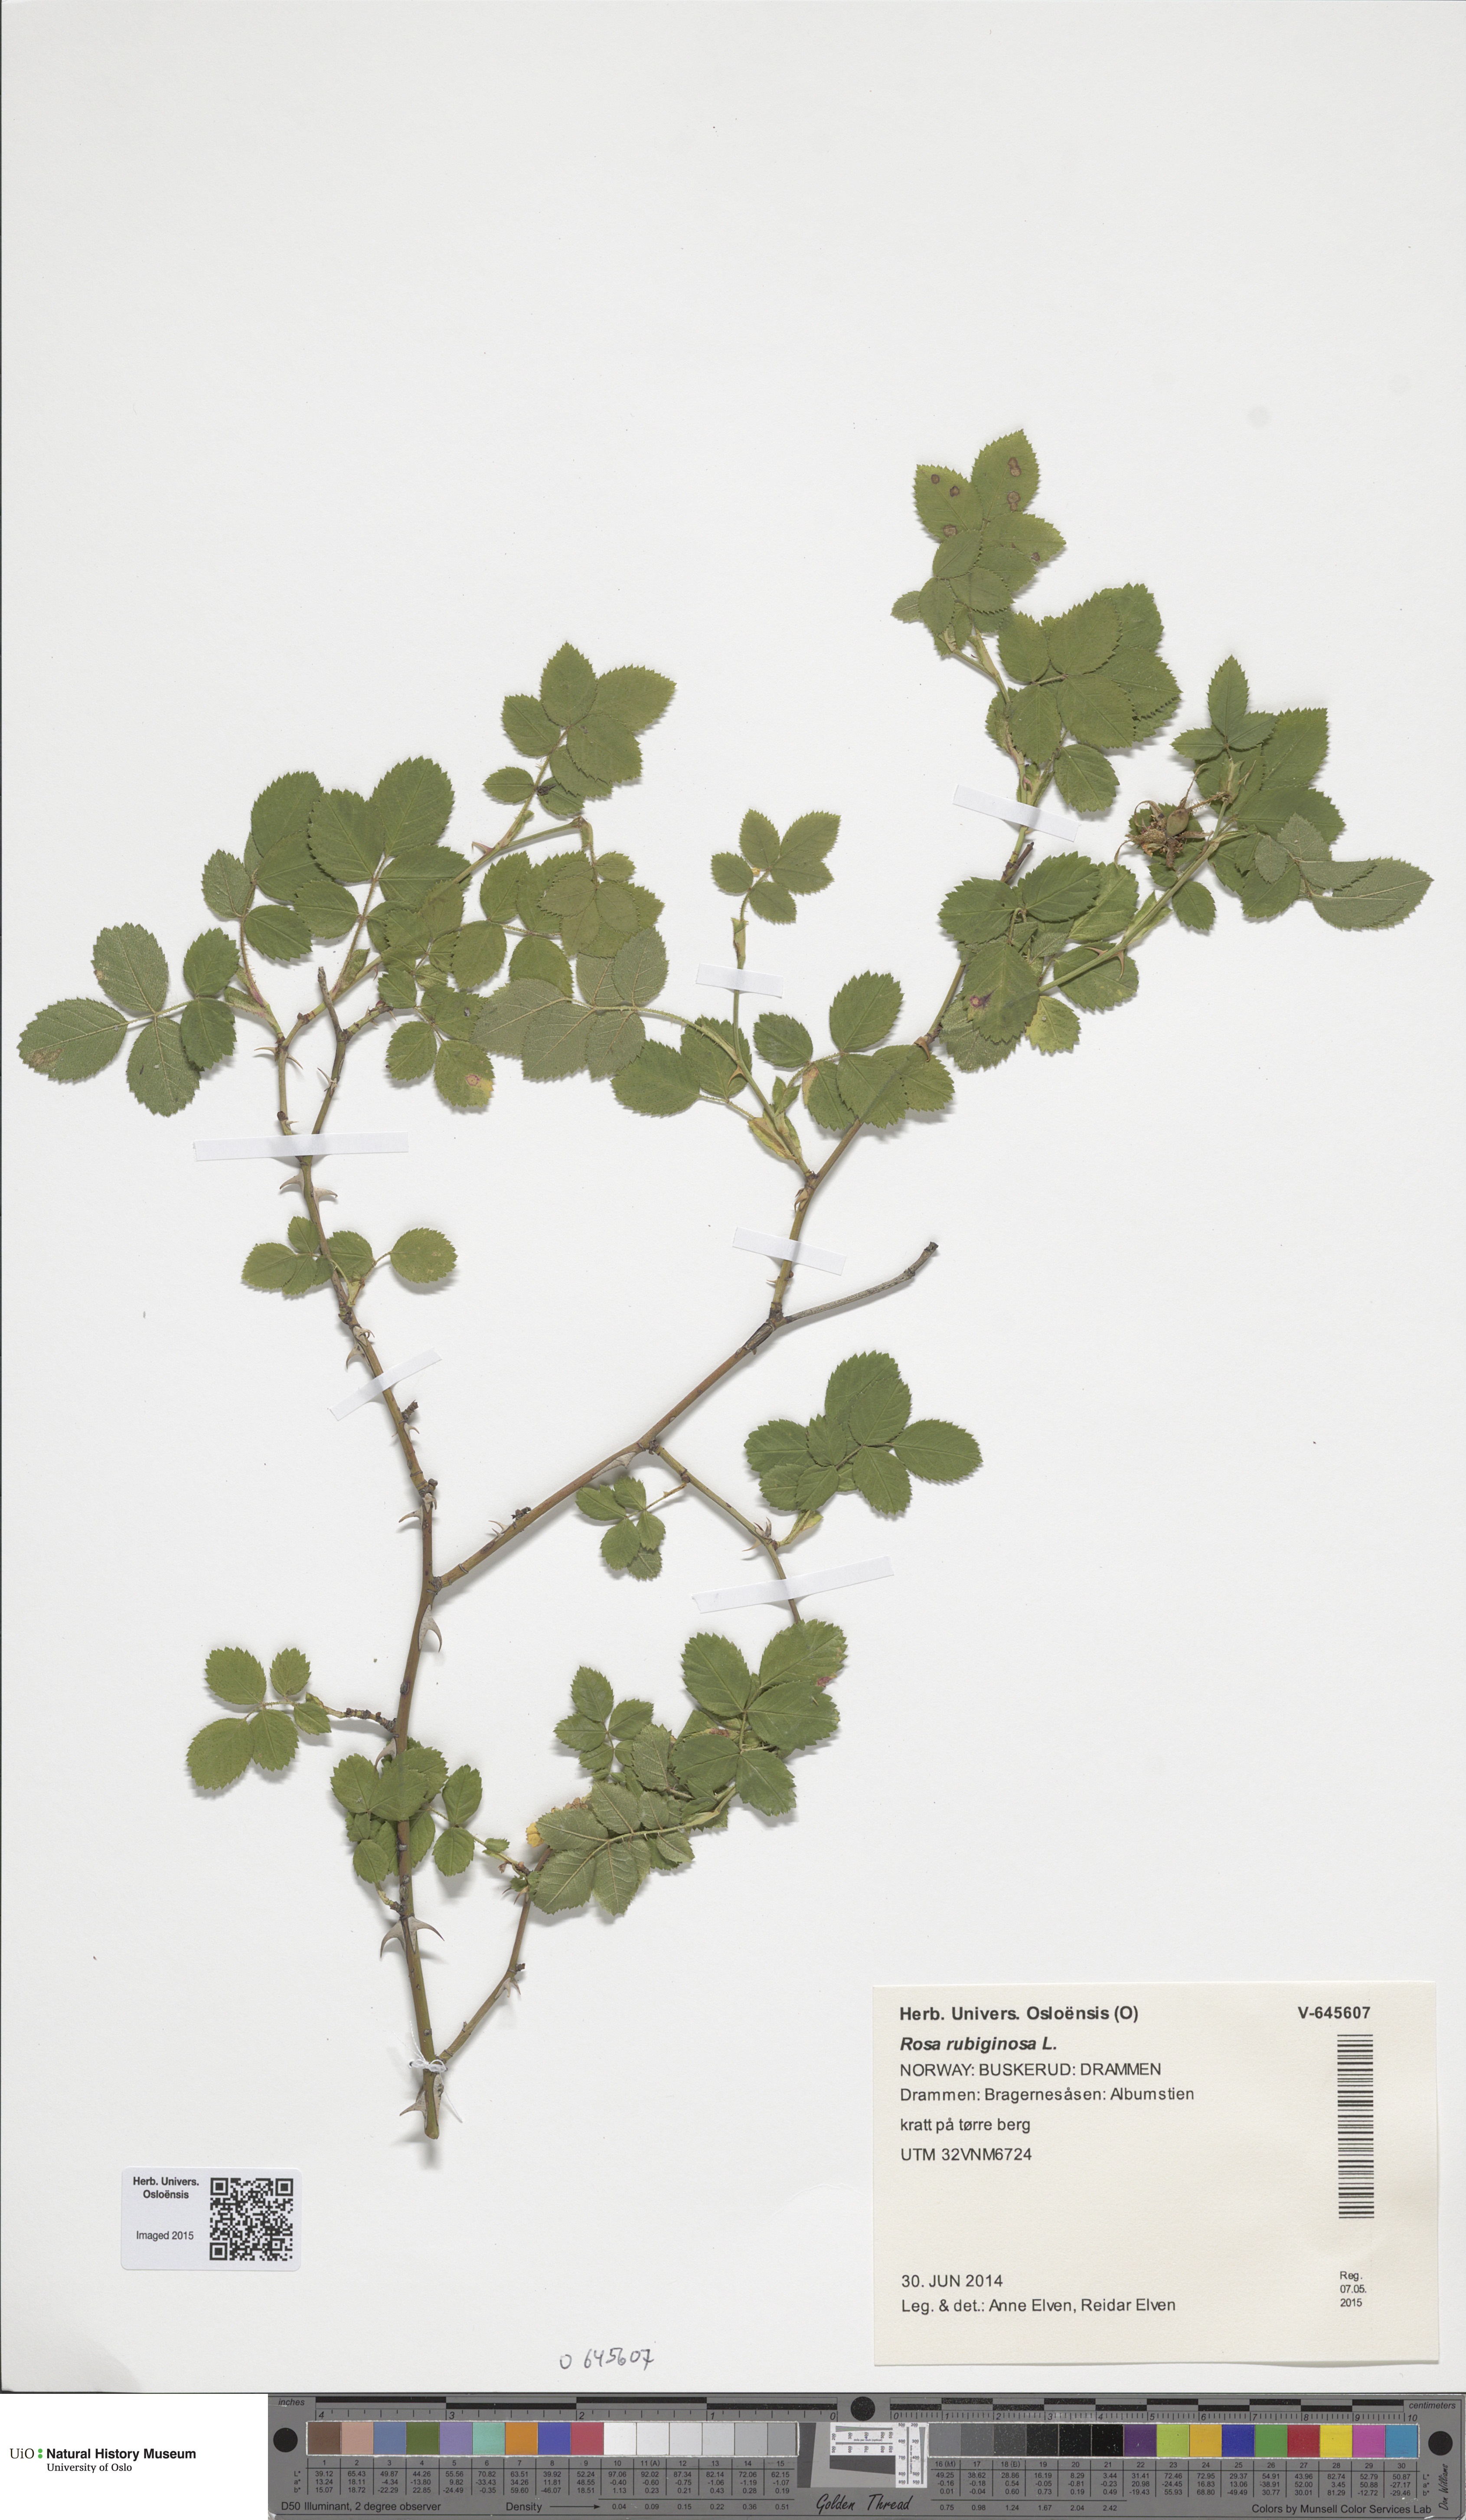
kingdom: Plantae
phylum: Tracheophyta
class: Magnoliopsida
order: Rosales
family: Rosaceae
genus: Rosa
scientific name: Rosa rubiginosa
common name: Sweet-briar
